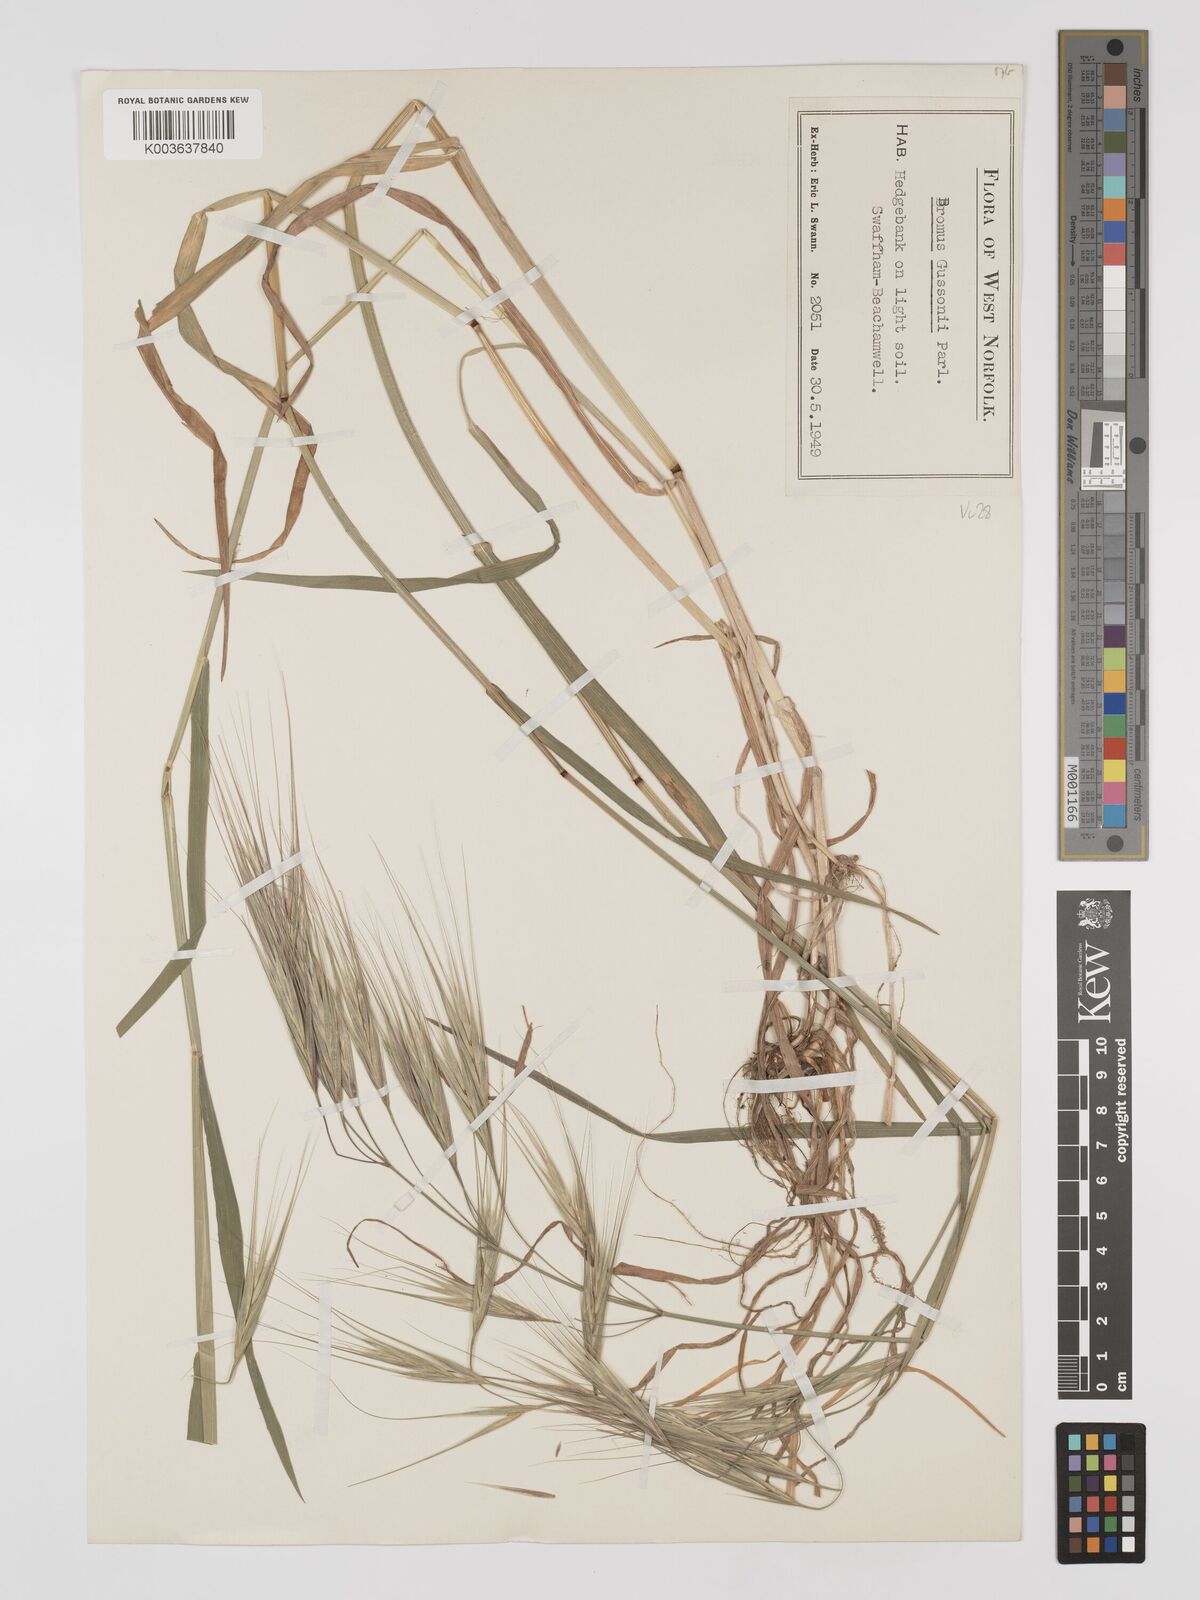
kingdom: Plantae
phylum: Tracheophyta
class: Liliopsida
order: Poales
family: Poaceae
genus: Bromus
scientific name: Bromus
